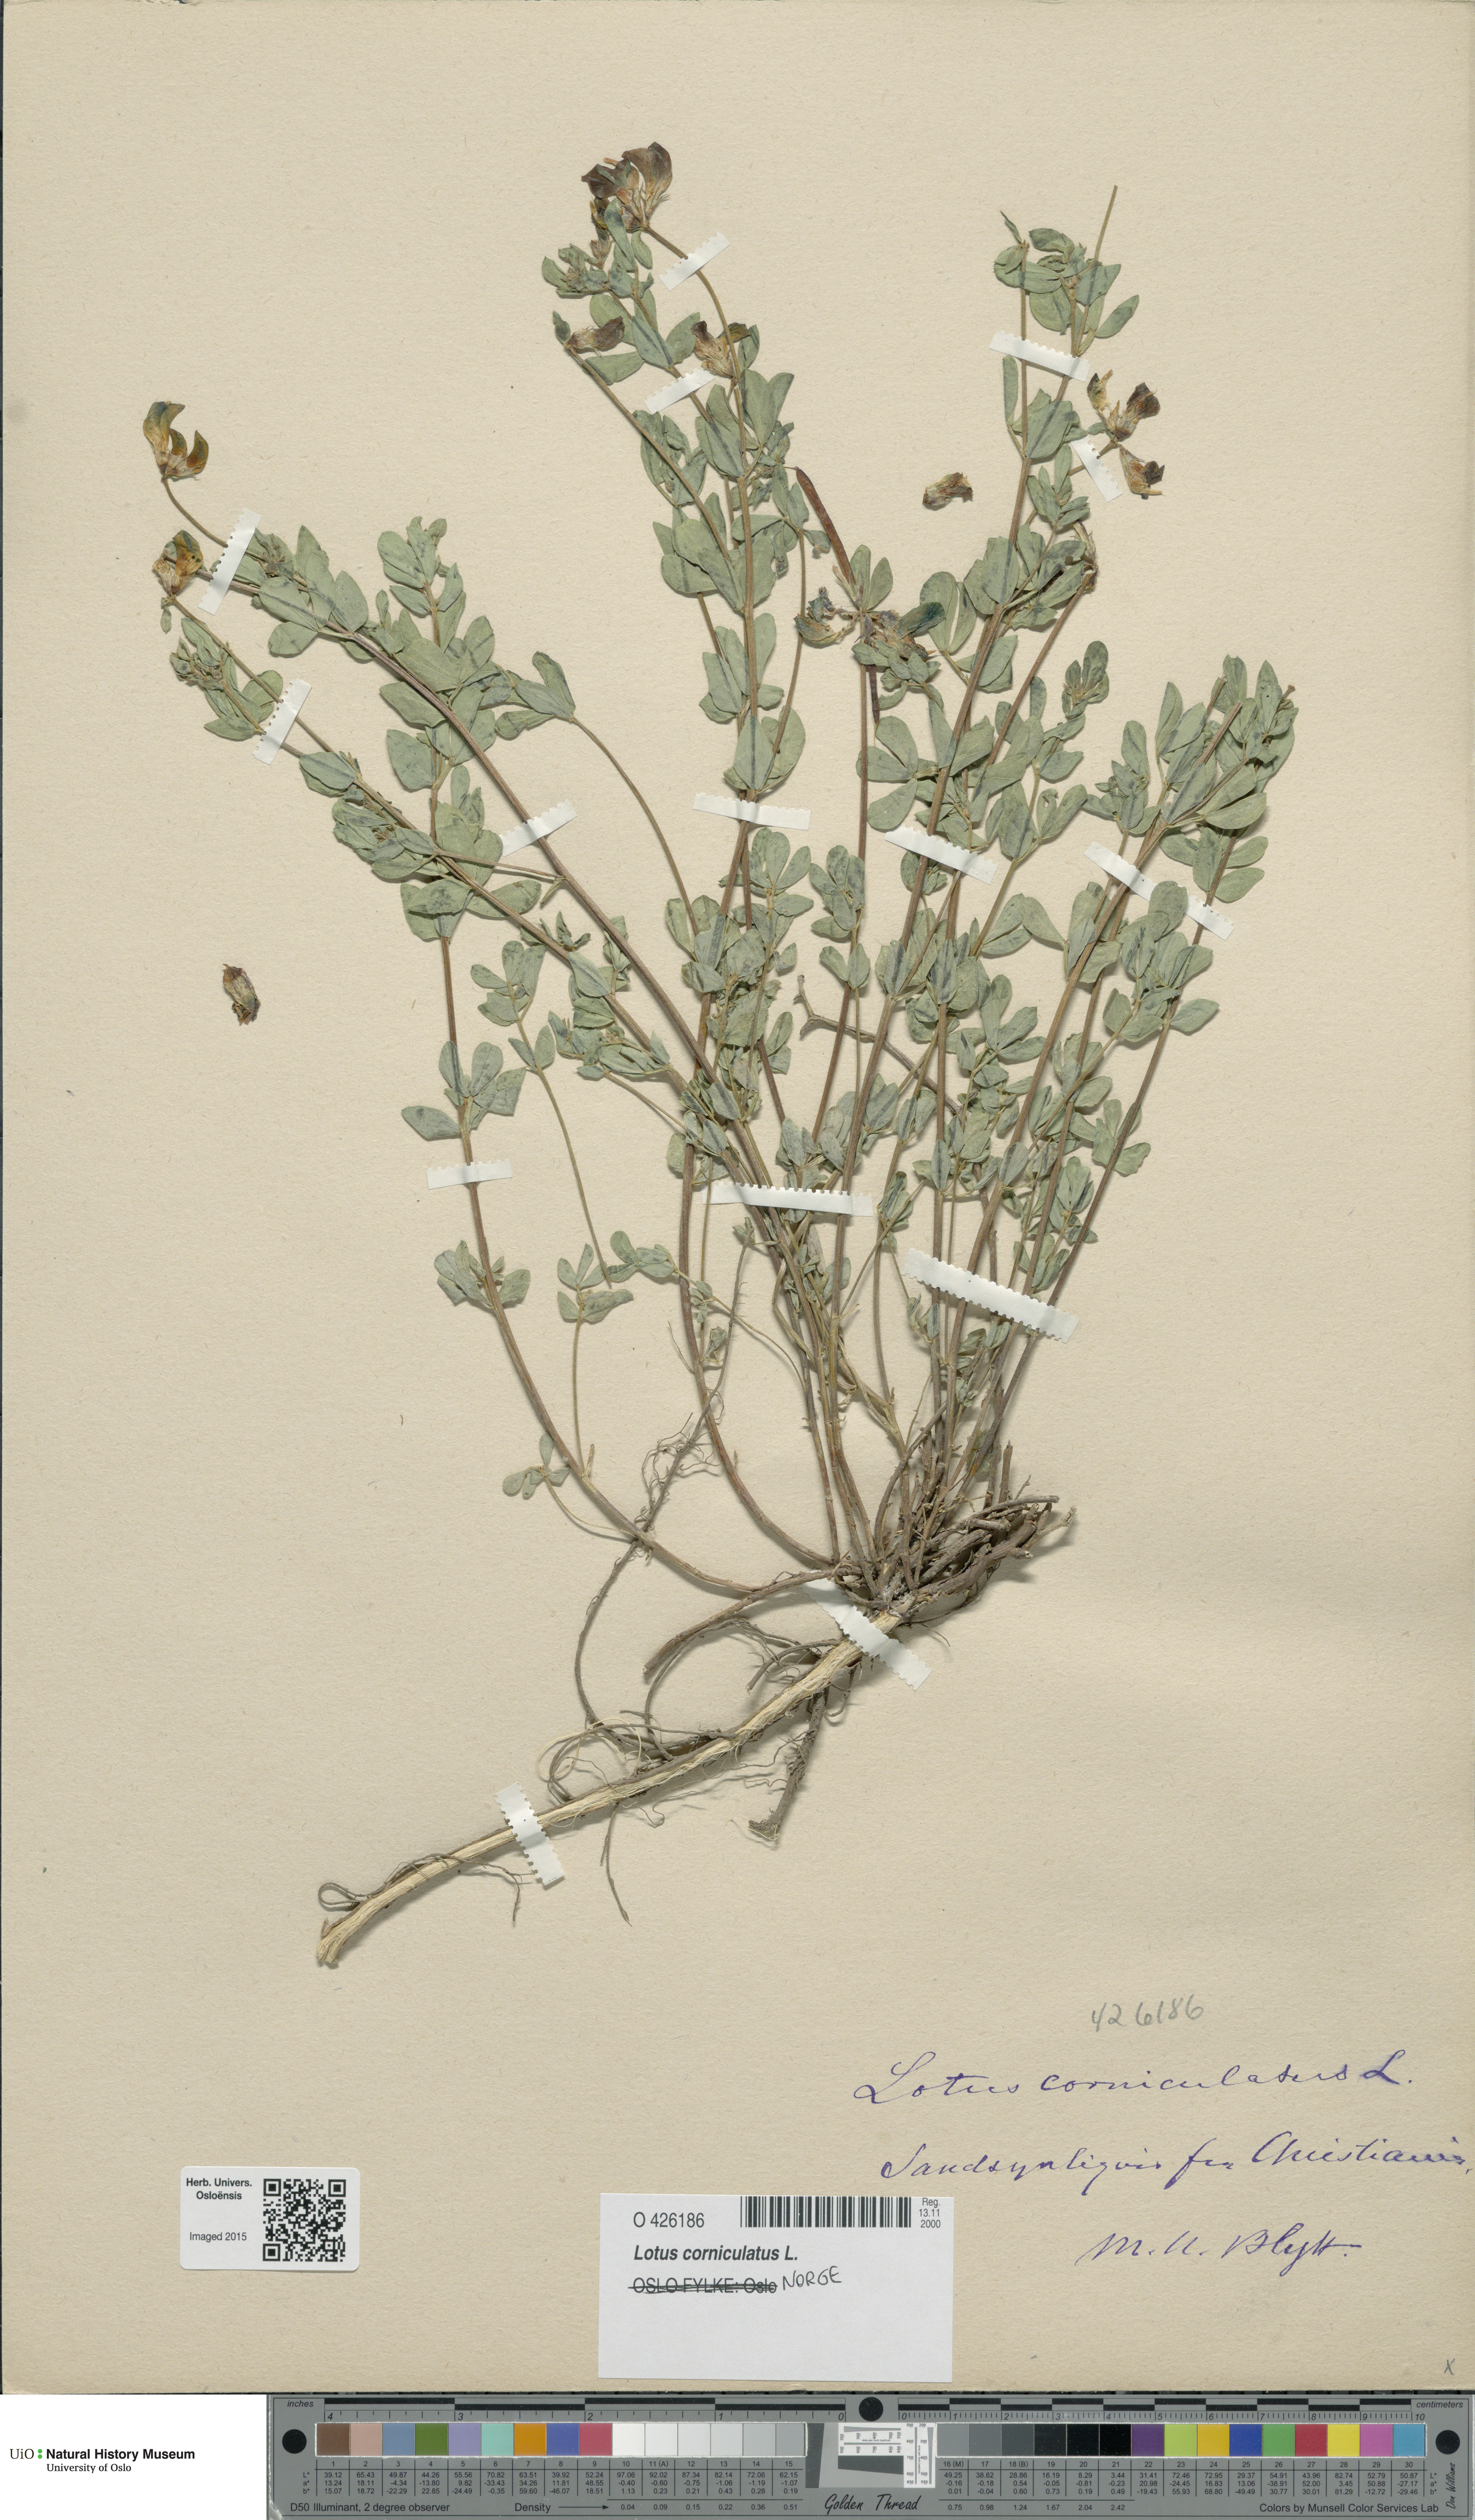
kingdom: Plantae
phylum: Tracheophyta
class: Magnoliopsida
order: Fabales
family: Fabaceae
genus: Lotus
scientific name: Lotus corniculatus
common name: Common bird's-foot-trefoil
